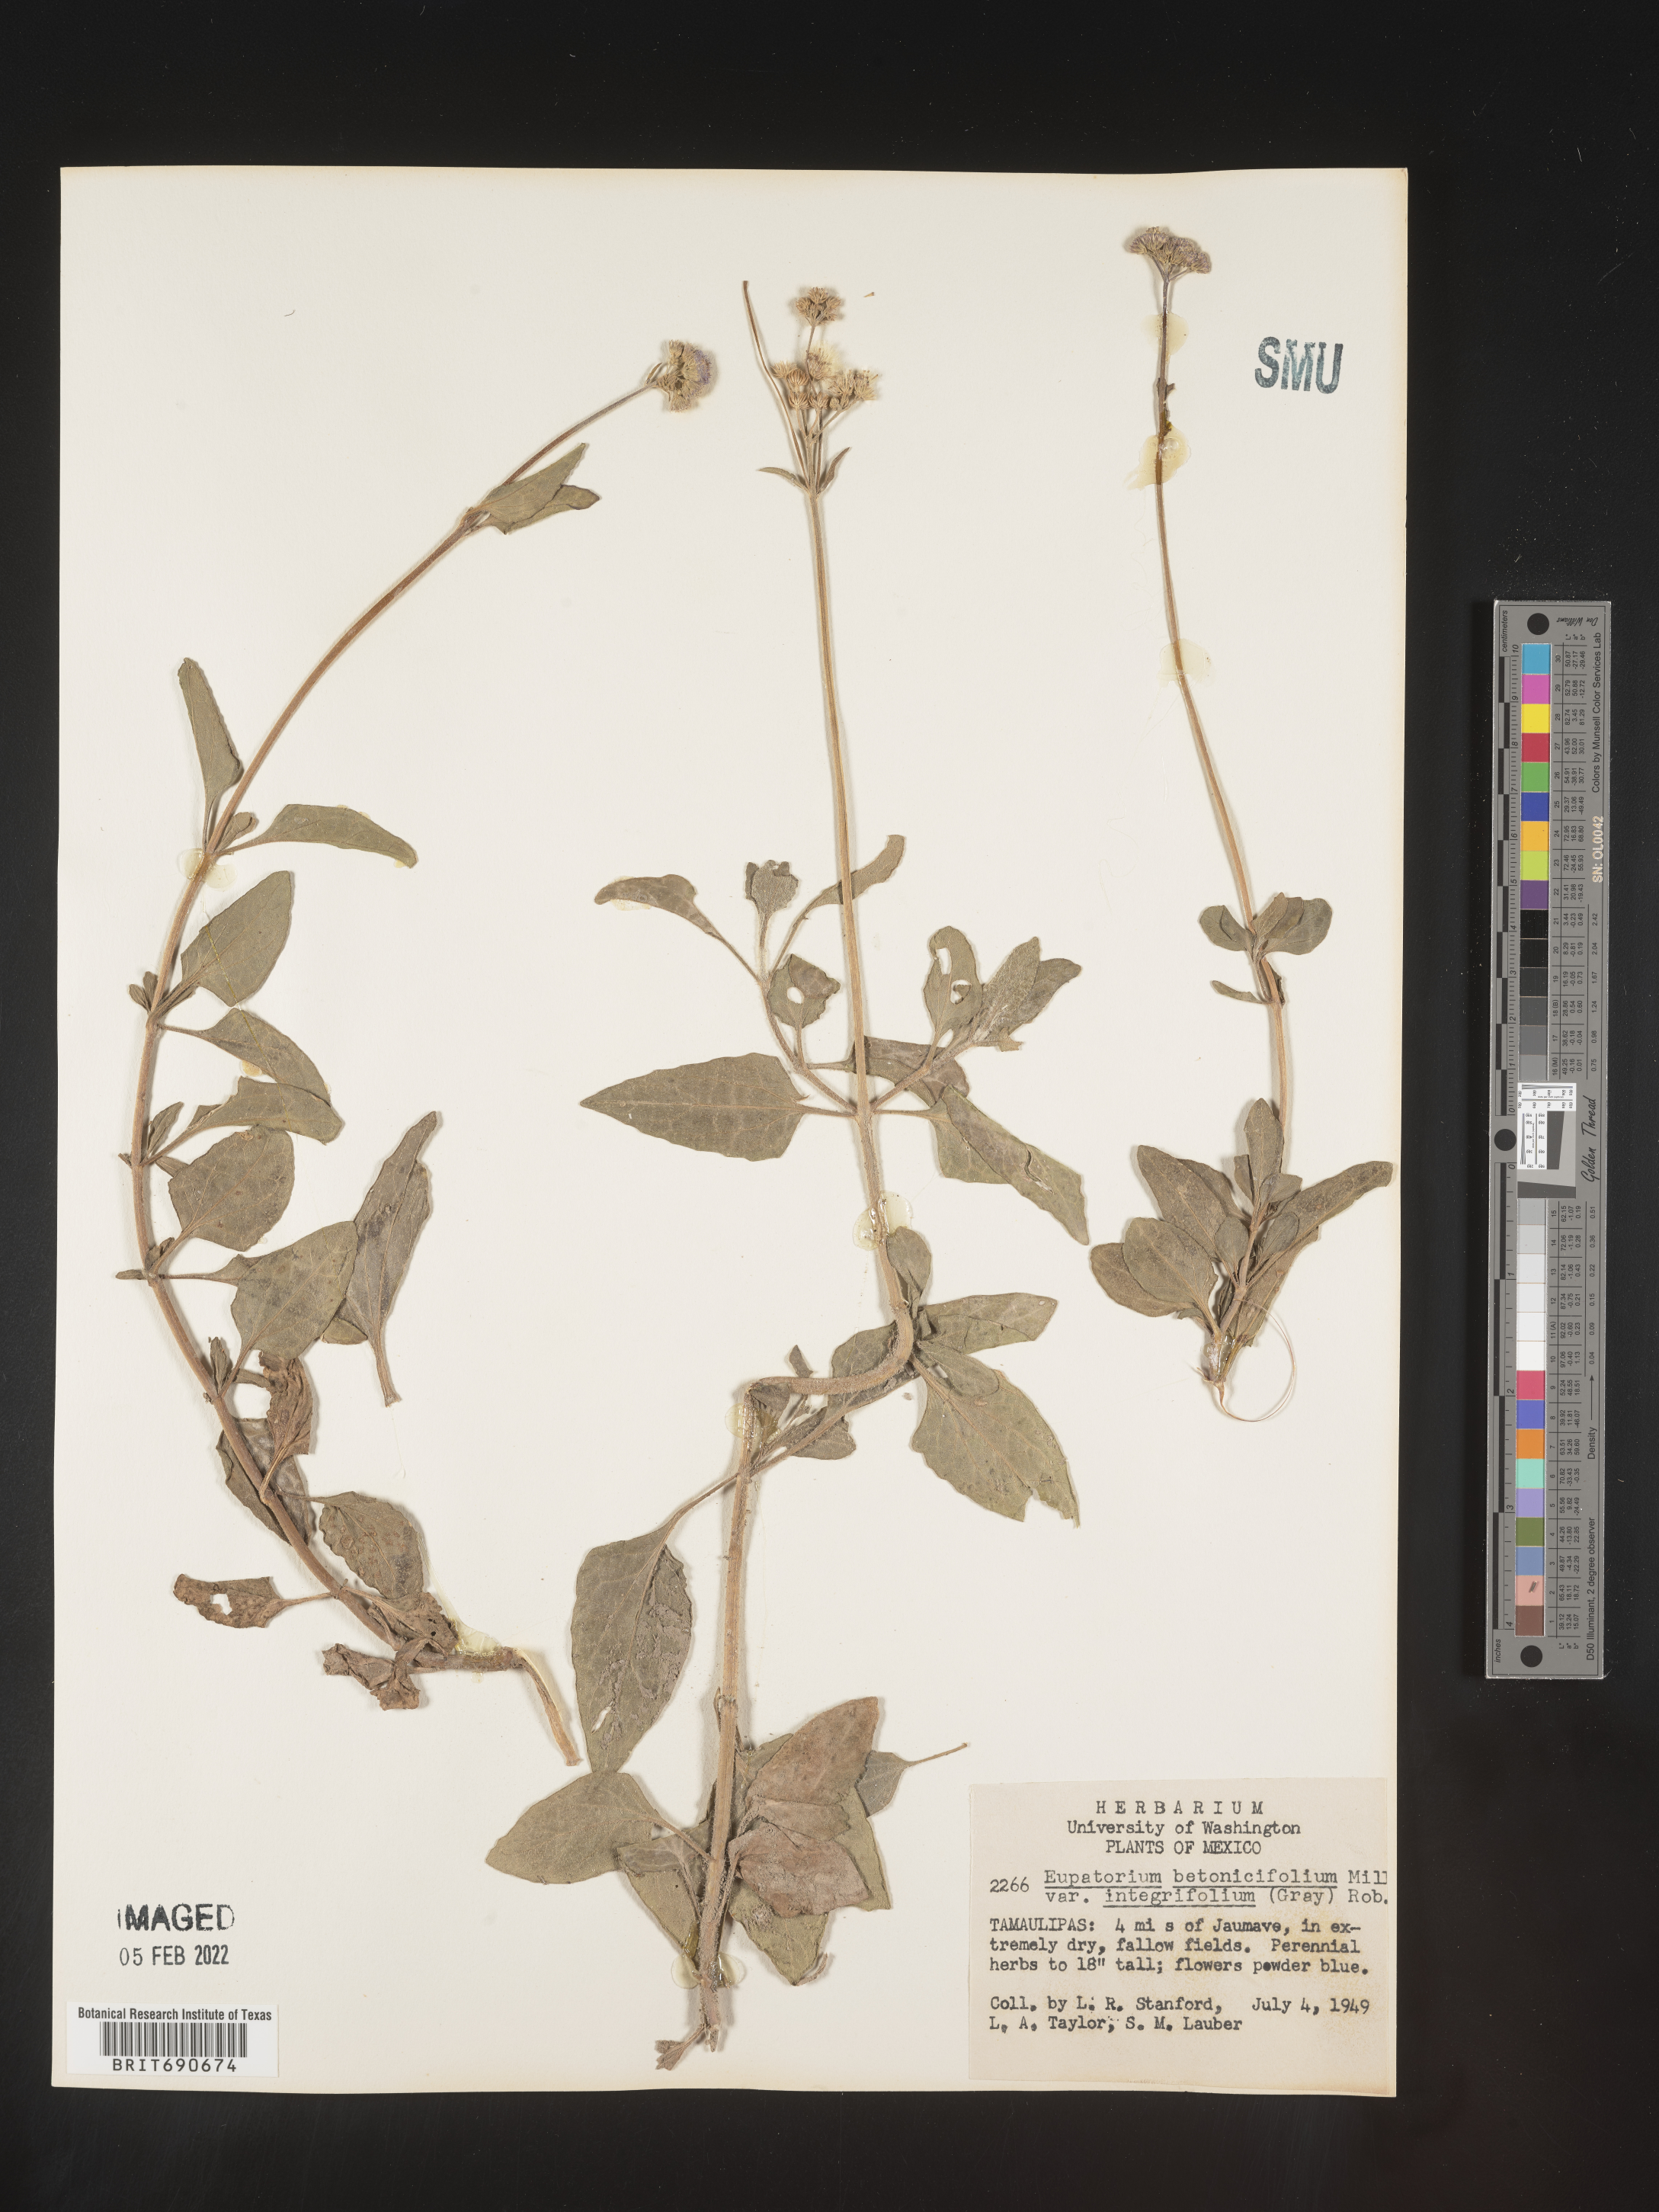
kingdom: Plantae
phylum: Tracheophyta
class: Magnoliopsida
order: Asterales
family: Asteraceae
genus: Conoclinium
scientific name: Conoclinium
